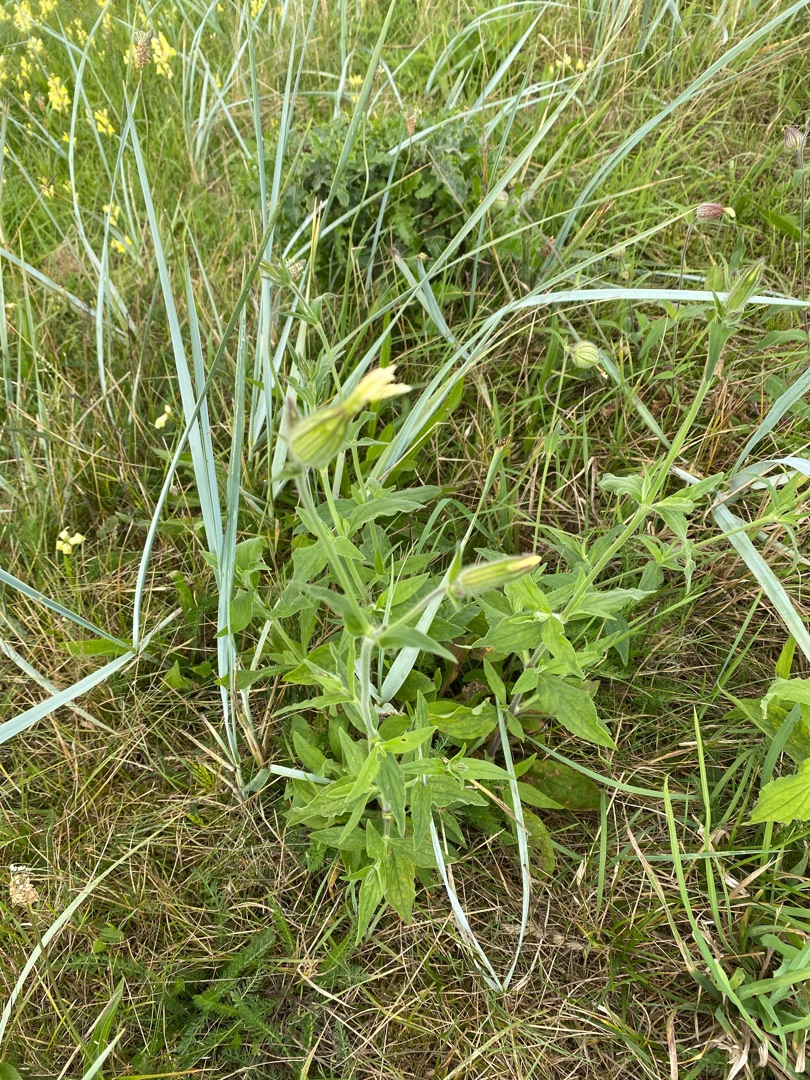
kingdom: Plantae
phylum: Tracheophyta
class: Magnoliopsida
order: Caryophyllales
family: Caryophyllaceae
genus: Silene
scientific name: Silene latifolia
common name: Aftenpragtstjerne
